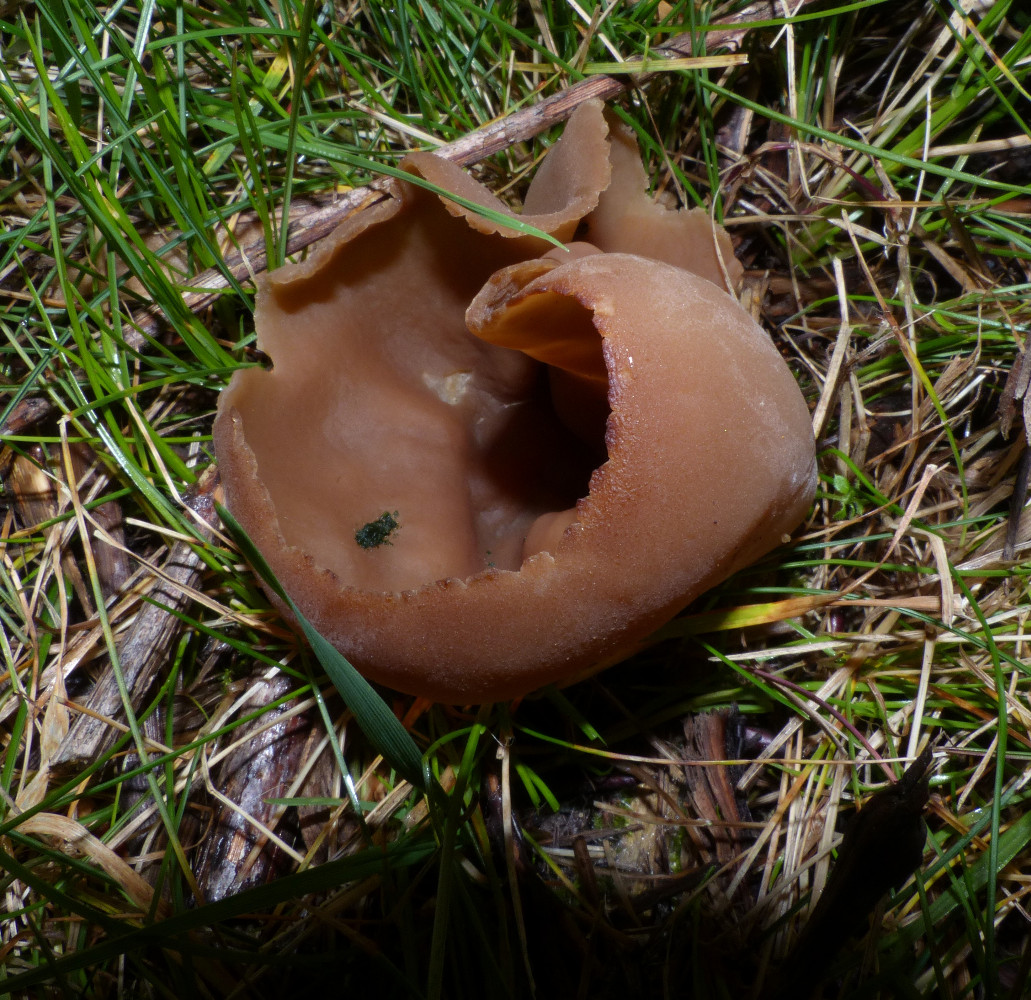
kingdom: Fungi
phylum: Ascomycota
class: Pezizomycetes
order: Pezizales
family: Pezizaceae
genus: Peziza
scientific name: Peziza vesiculosa
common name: blære-bægersvamp
